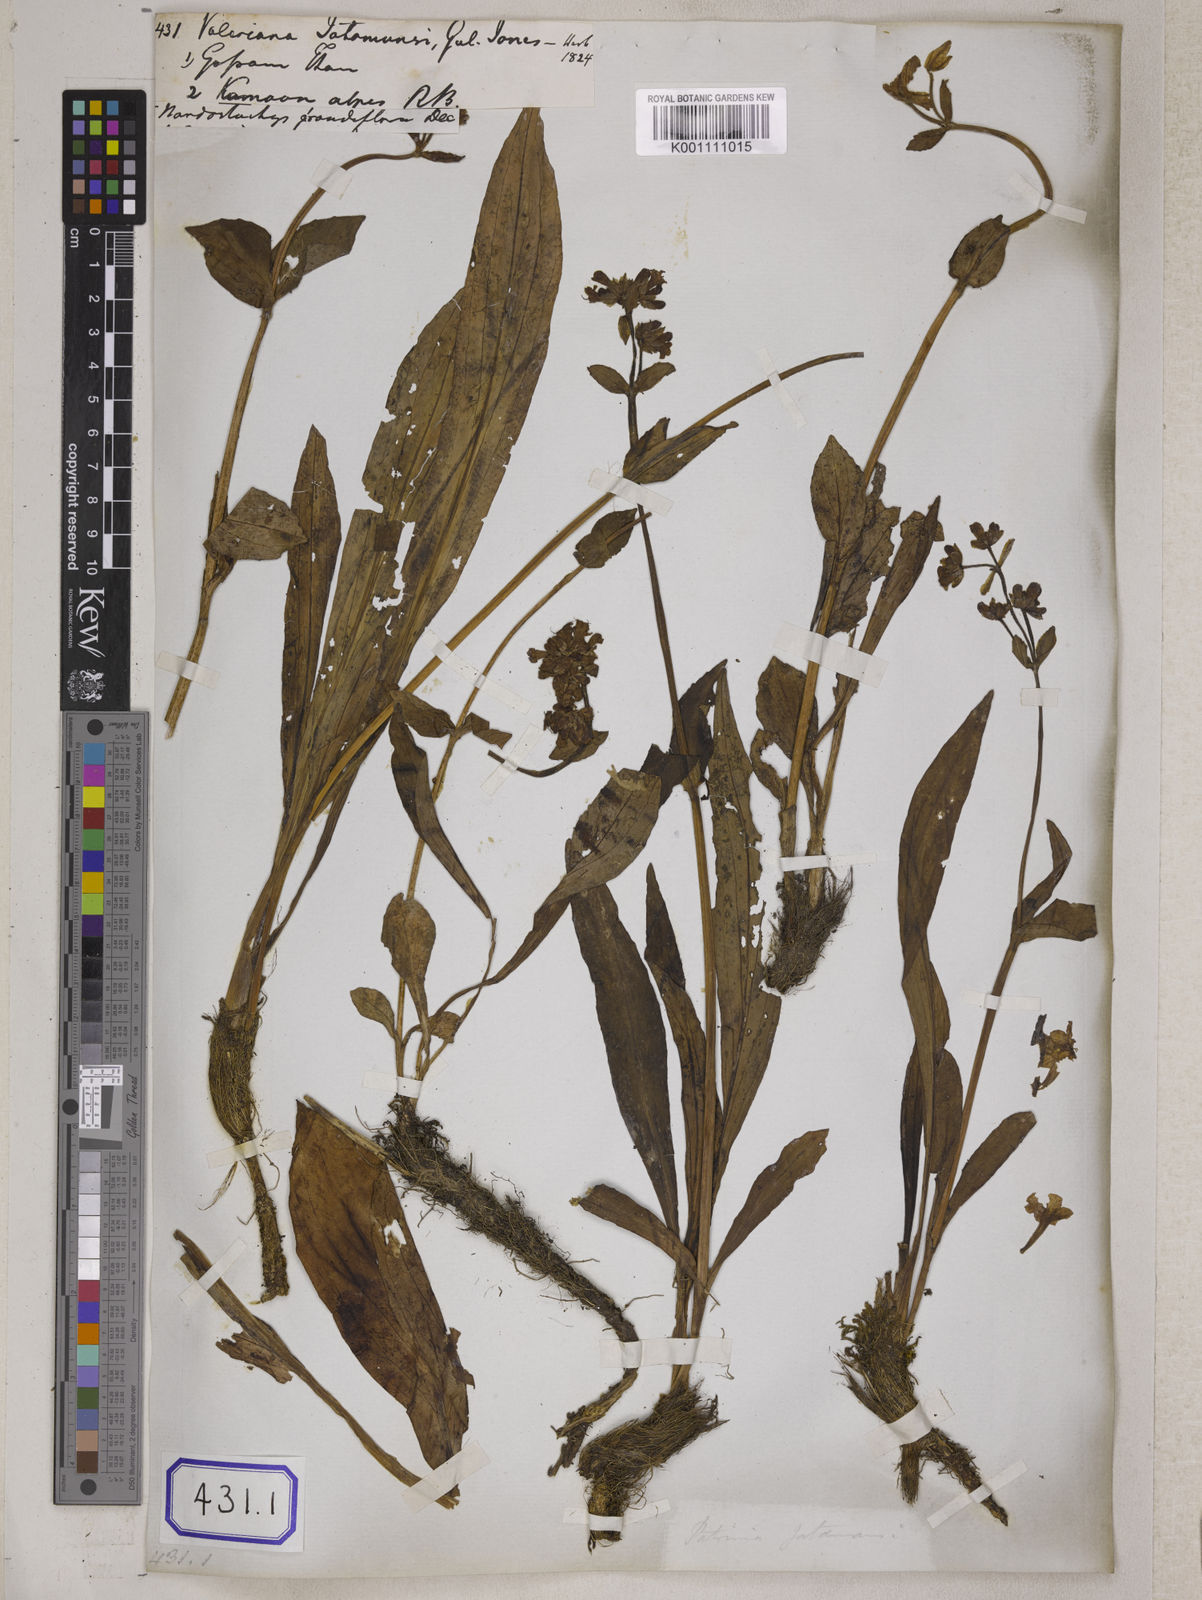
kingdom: Plantae
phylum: Tracheophyta
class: Magnoliopsida
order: Dipsacales
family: Caprifoliaceae
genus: Nardostachys
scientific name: Nardostachys jatamansi
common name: Indian nard
